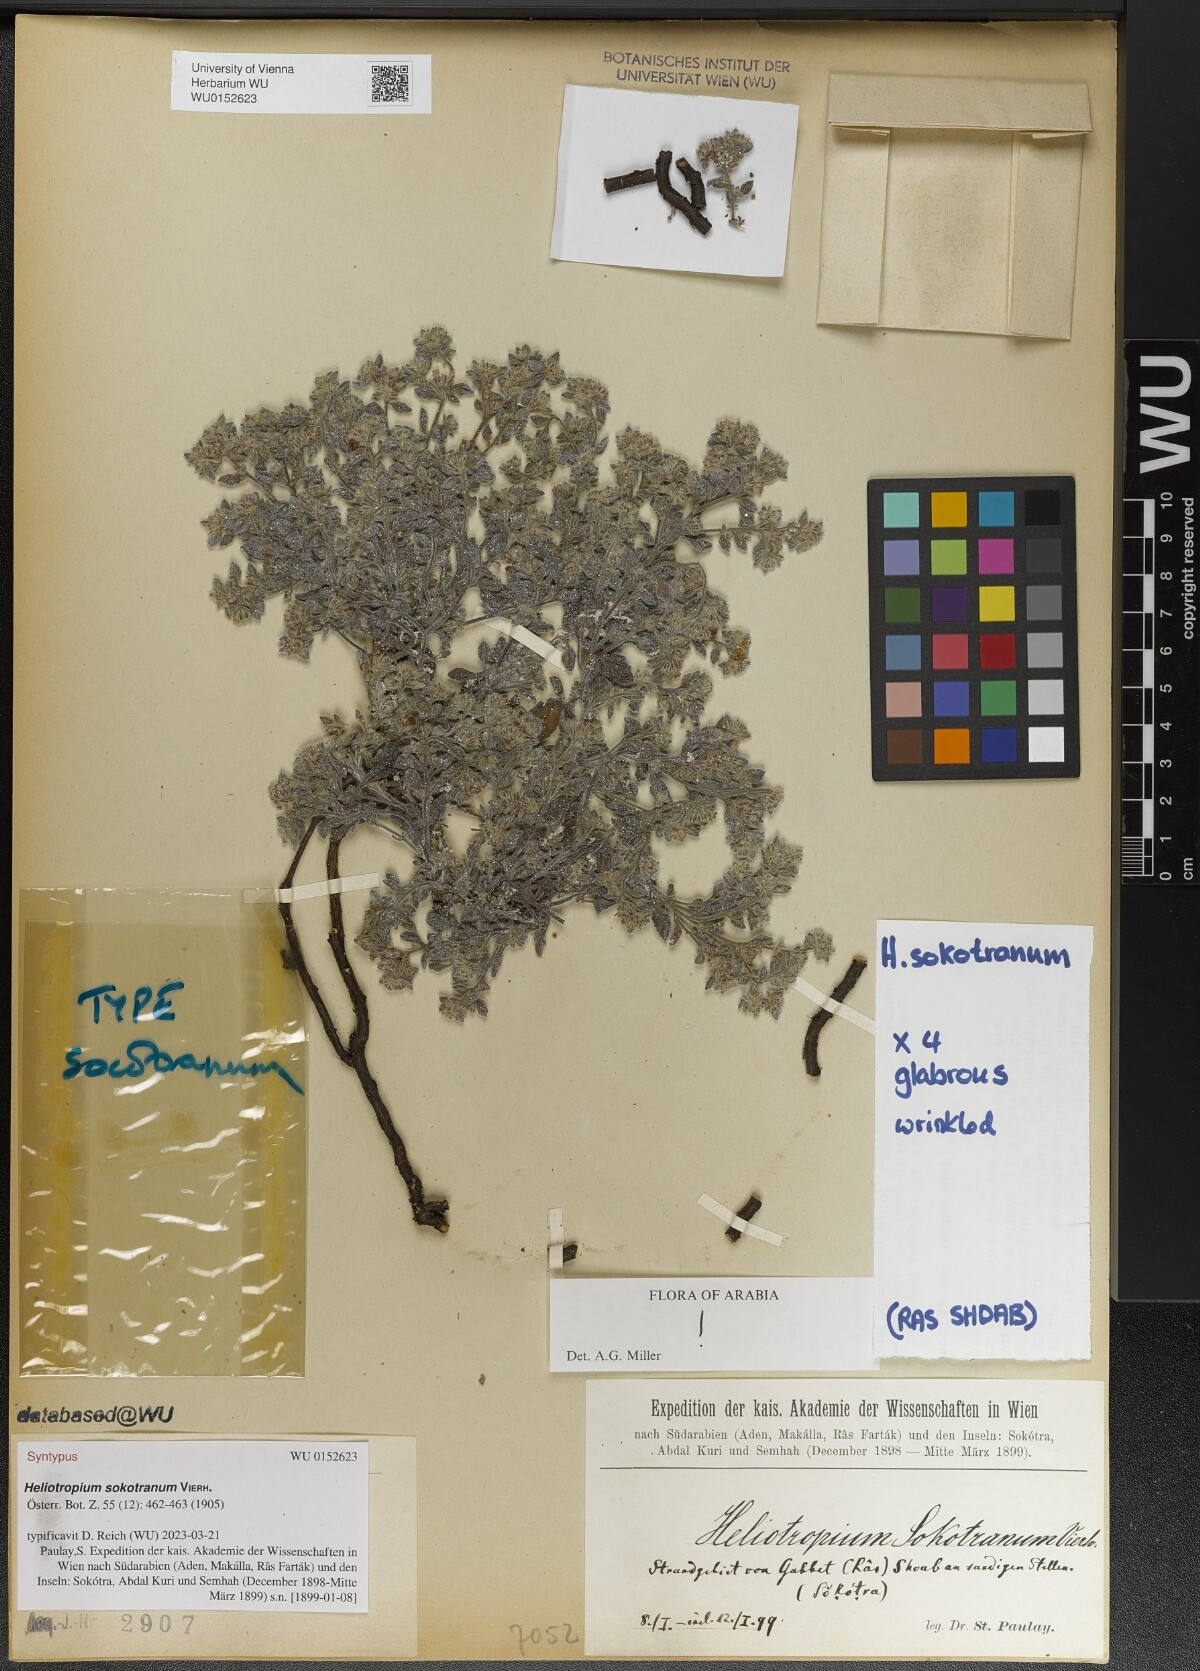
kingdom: Plantae
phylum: Tracheophyta
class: Magnoliopsida
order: Boraginales
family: Heliotropiaceae
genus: Heliotropium
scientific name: Heliotropium sokotranum
